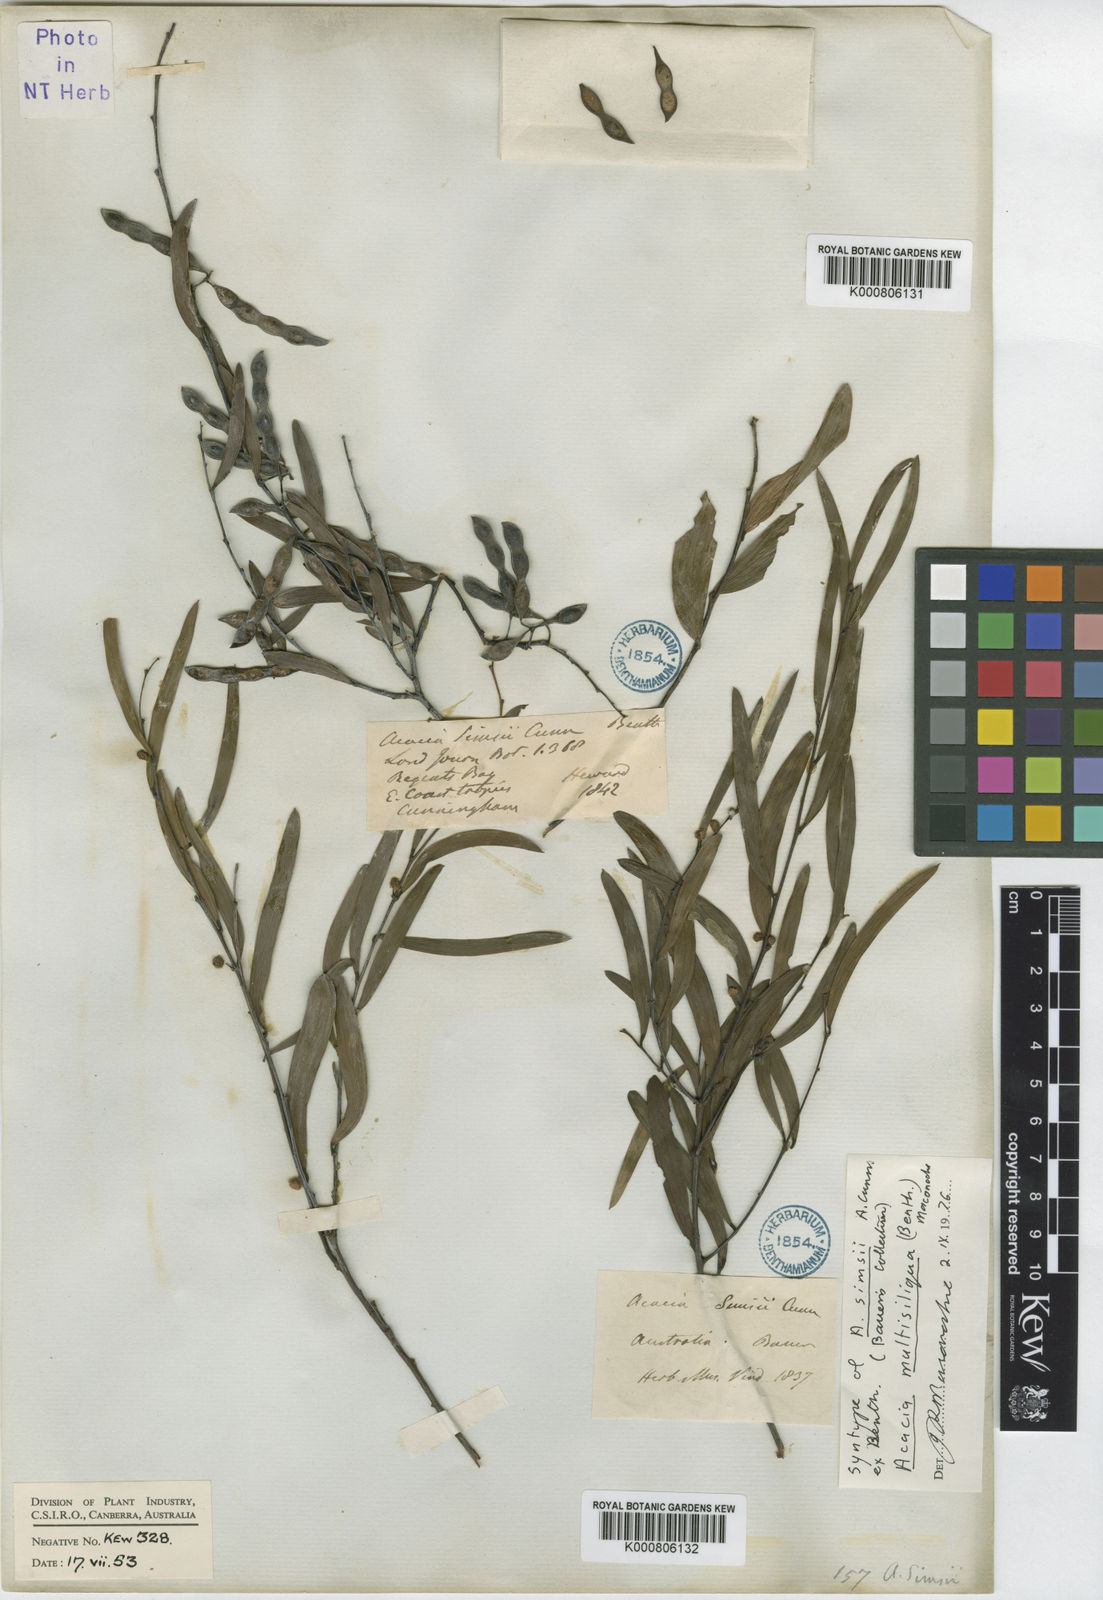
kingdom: Plantae
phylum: Tracheophyta
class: Magnoliopsida
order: Fabales
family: Fabaceae
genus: Acacia
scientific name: Acacia multisiliqua
